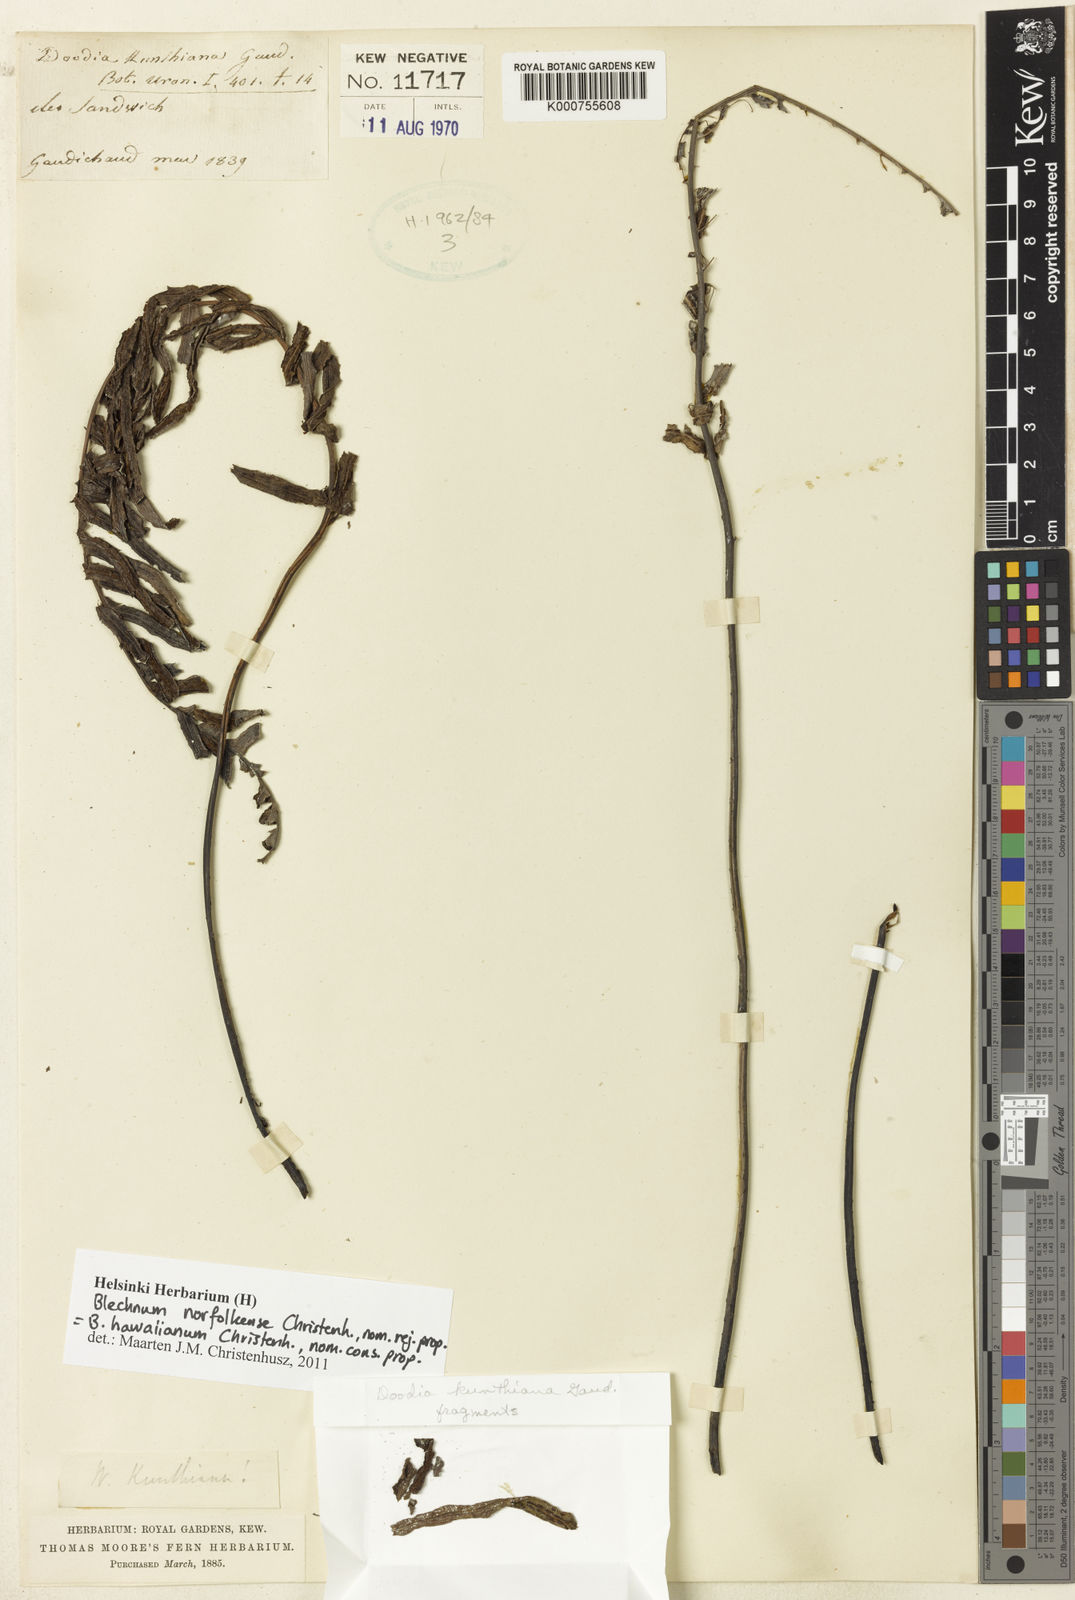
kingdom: Plantae
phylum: Tracheophyta
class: Polypodiopsida
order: Polypodiales
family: Blechnaceae
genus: Doodia
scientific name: Doodia kunthiana
